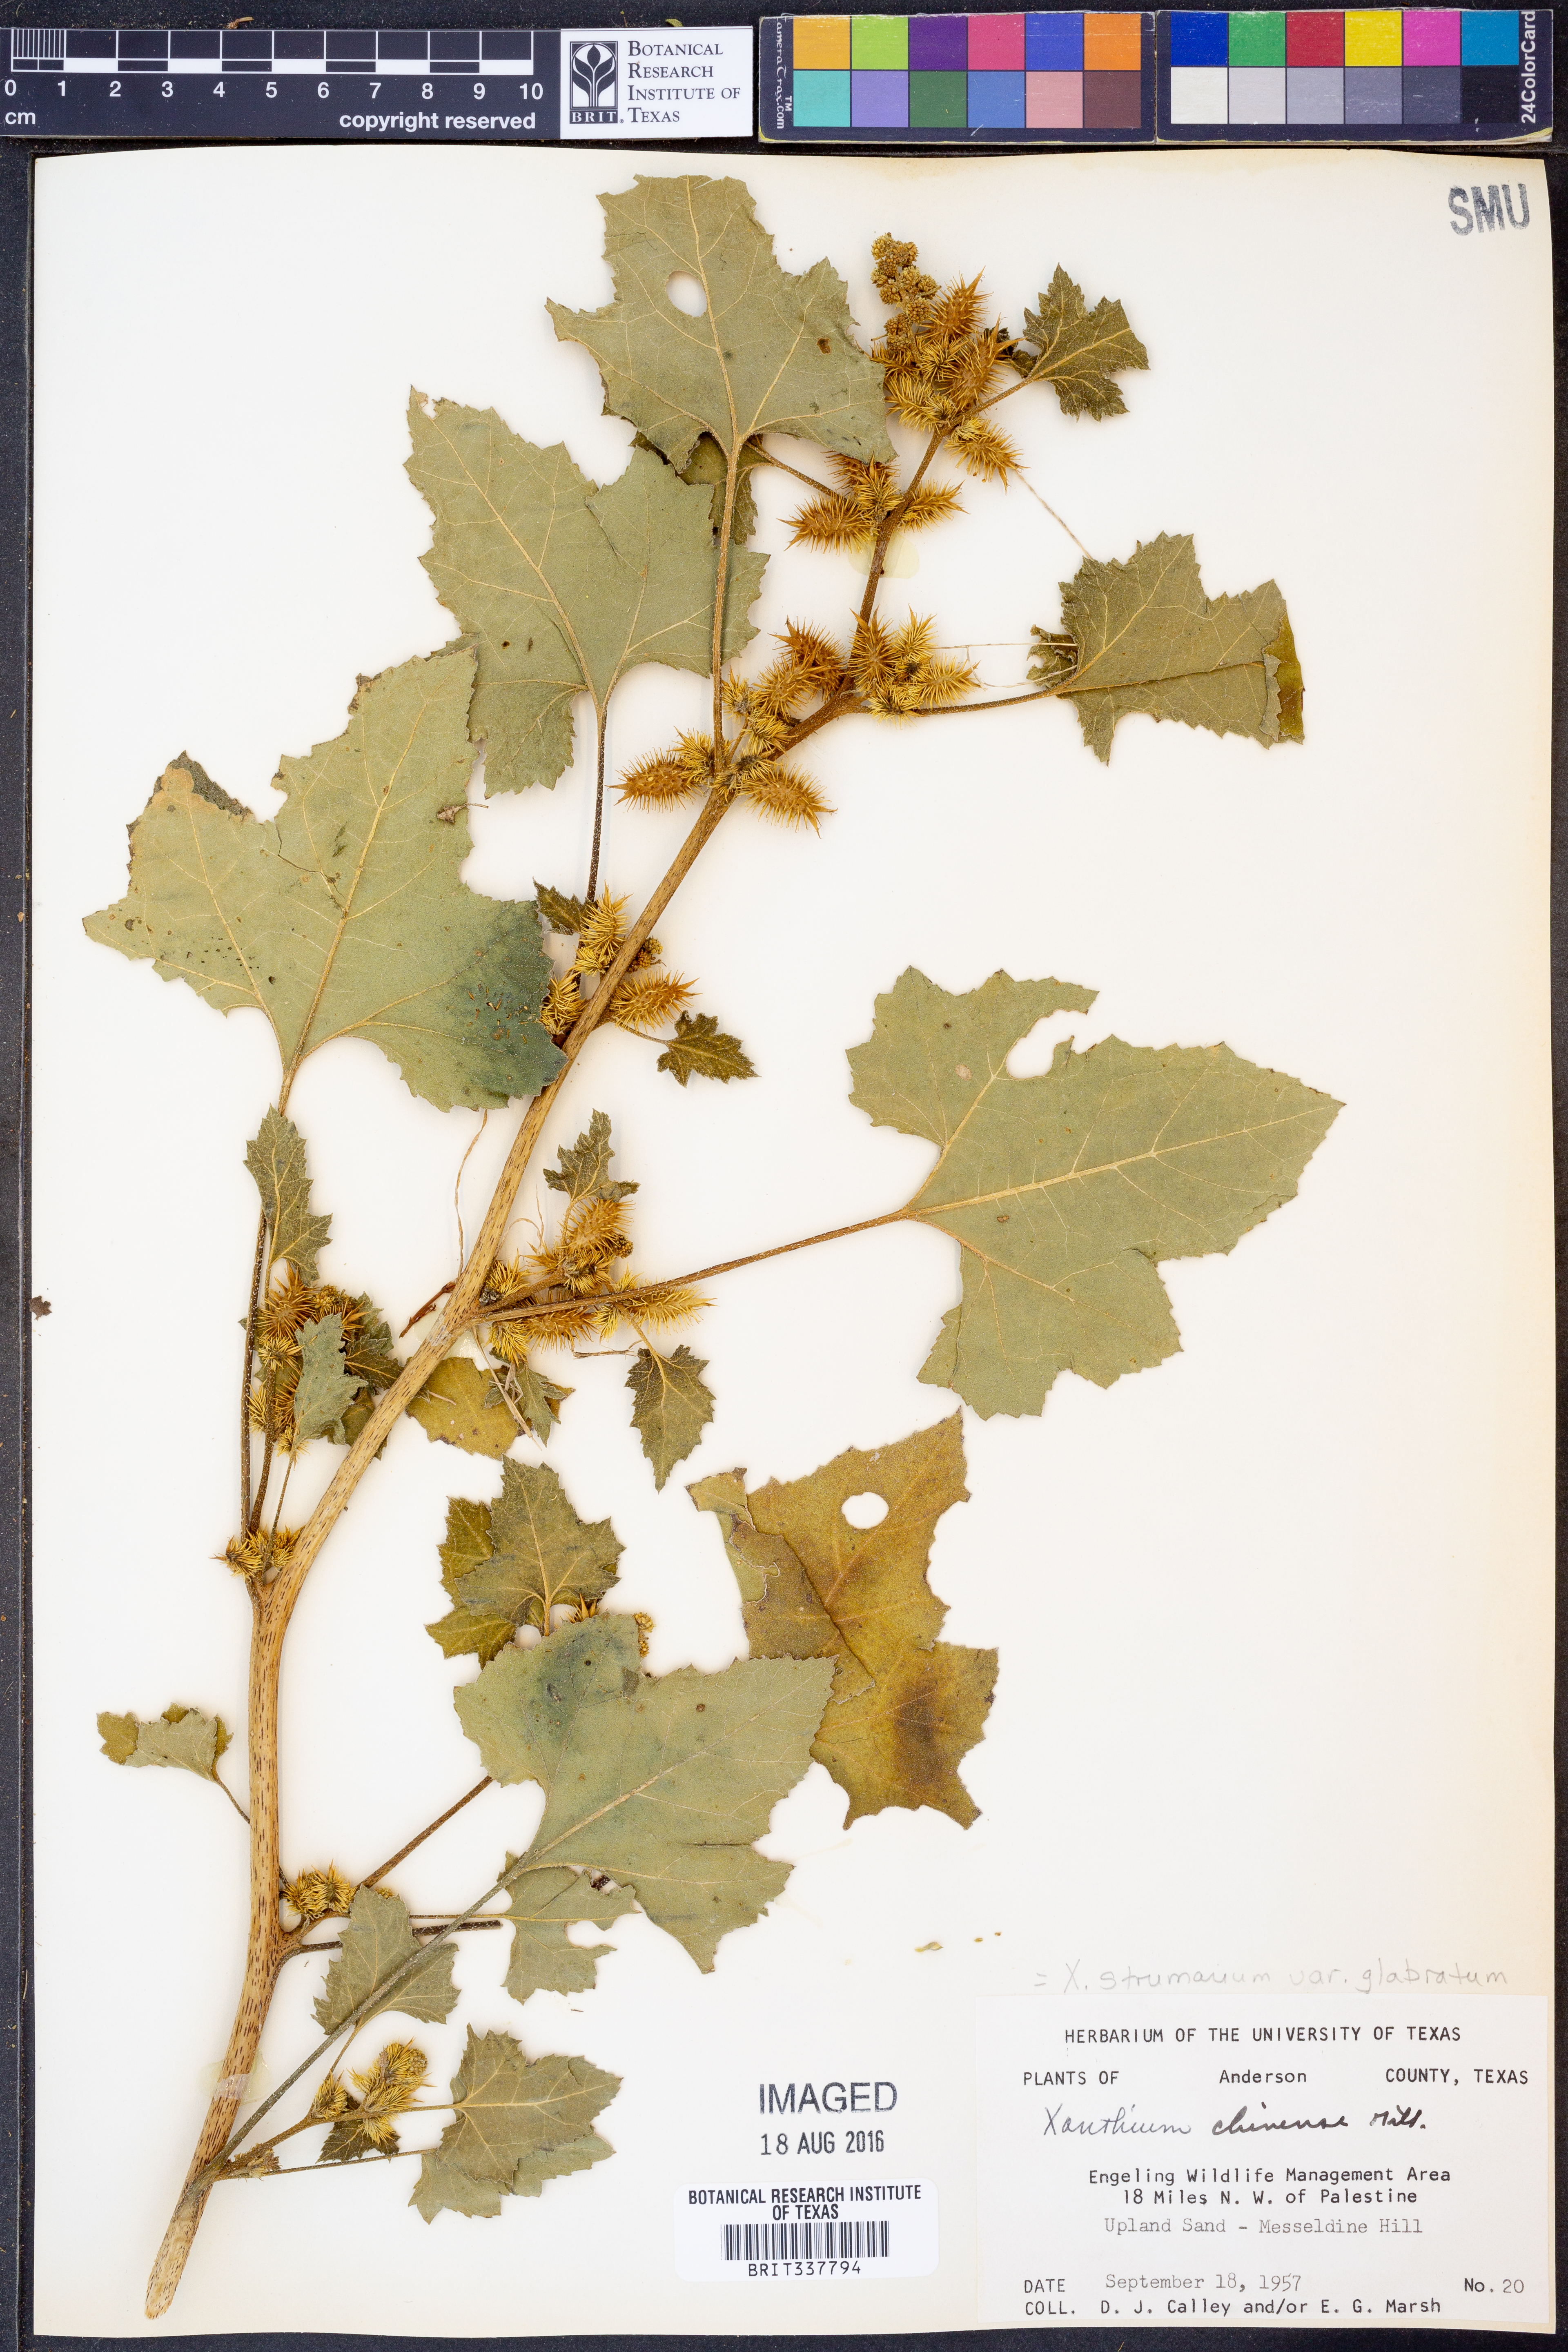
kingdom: Plantae
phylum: Tracheophyta
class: Magnoliopsida
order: Asterales
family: Asteraceae
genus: Xanthium
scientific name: Xanthium occidentale
